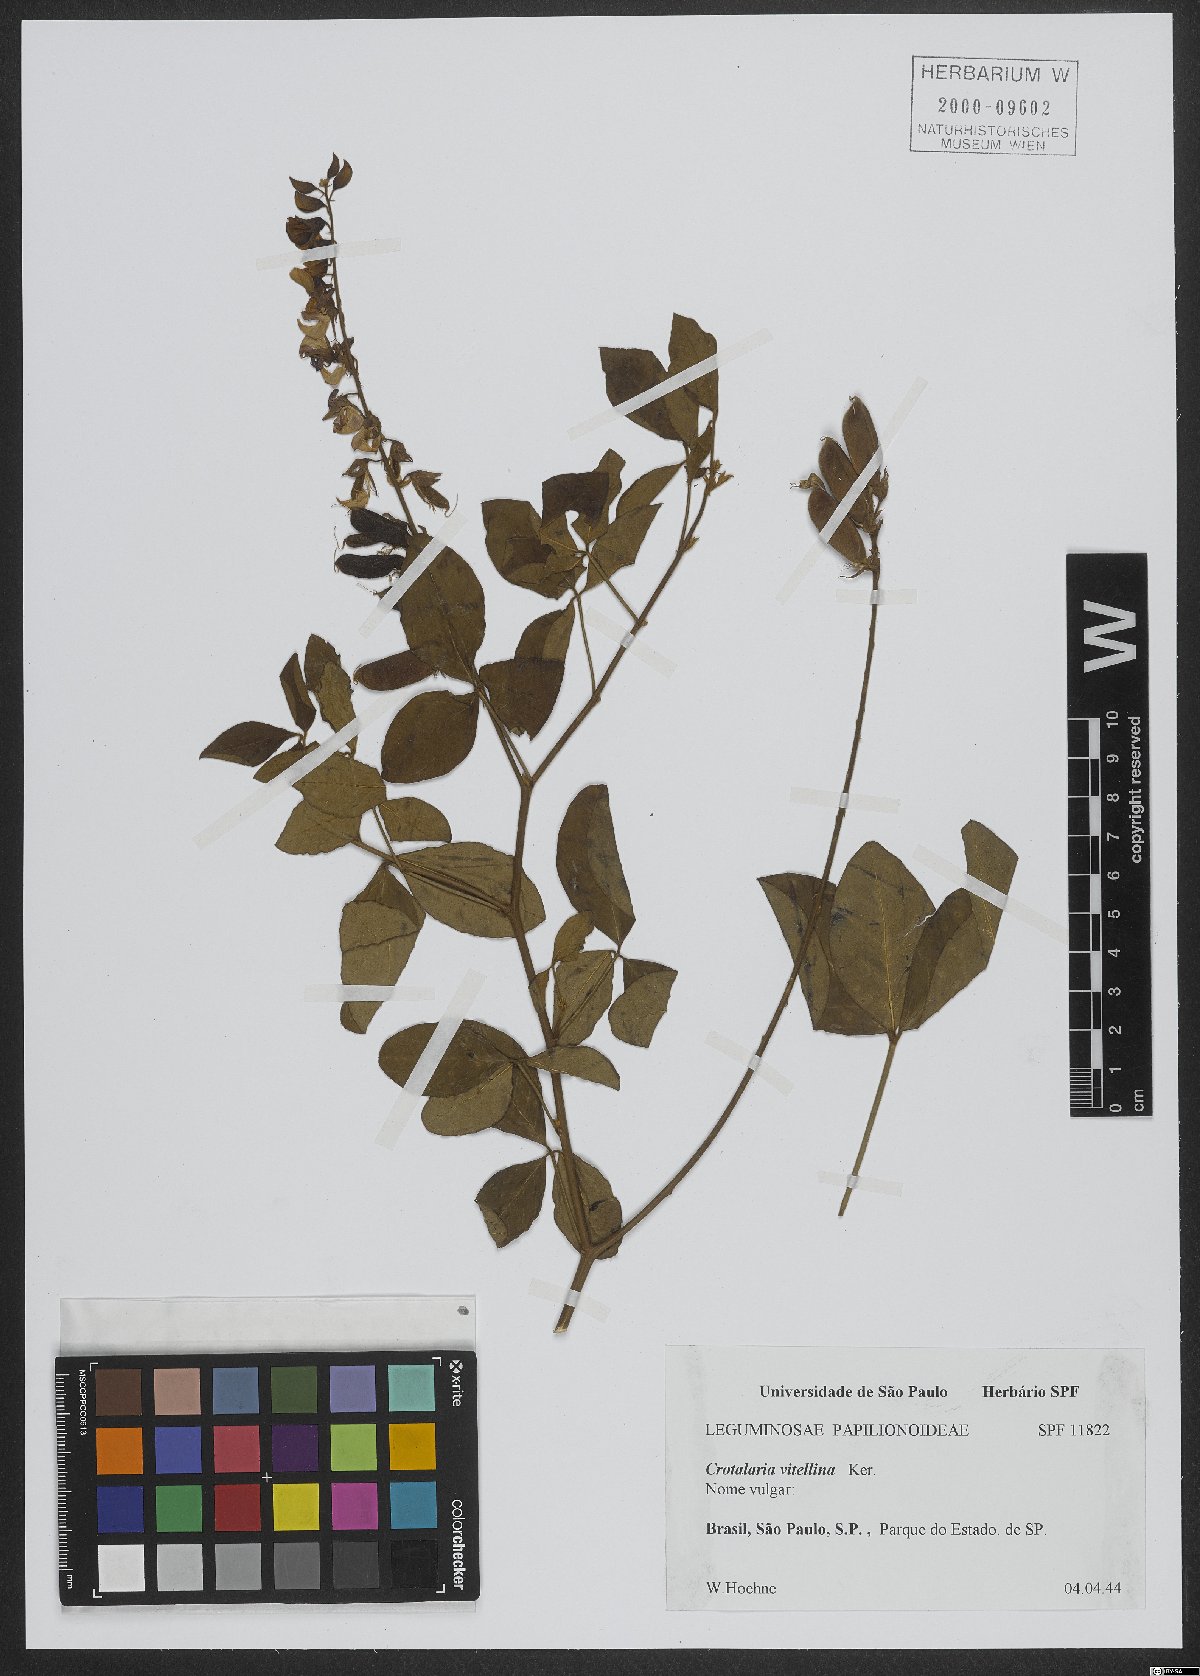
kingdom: Plantae
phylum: Tracheophyta
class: Magnoliopsida
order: Fabales
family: Fabaceae
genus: Crotalaria
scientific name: Crotalaria vitellina
